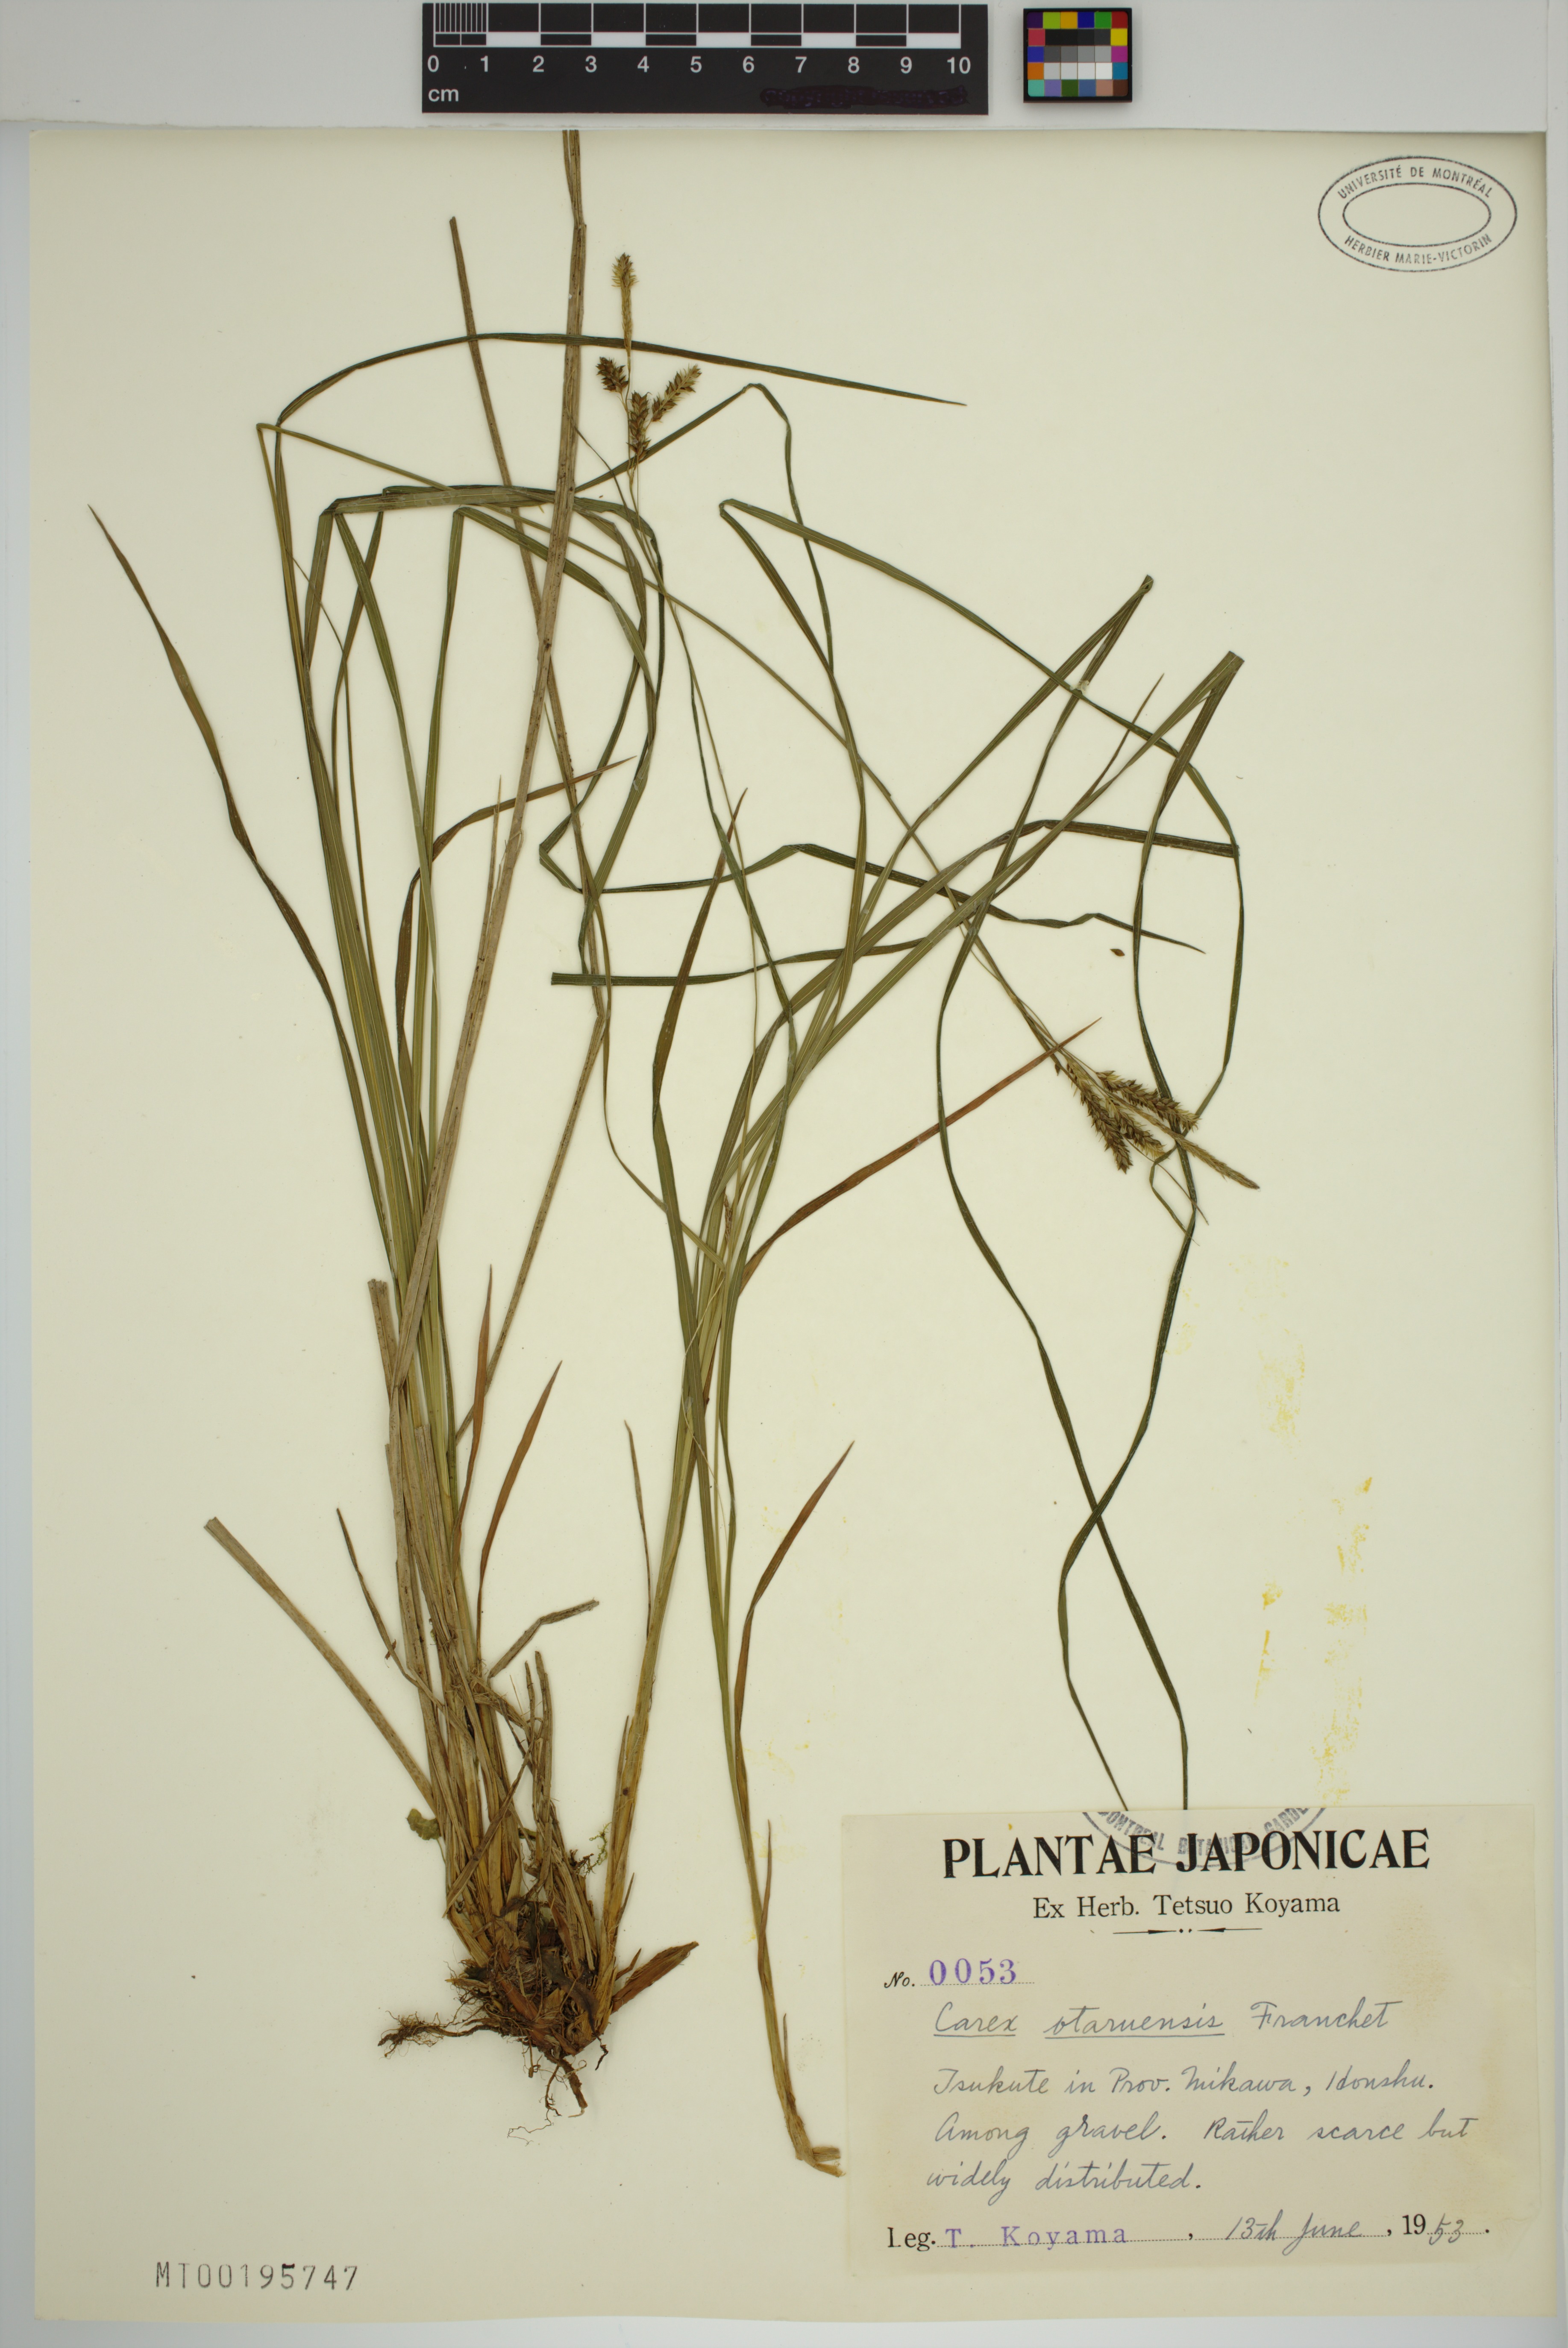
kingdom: Plantae
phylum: Tracheophyta
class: Liliopsida
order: Poales
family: Cyperaceae
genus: Carex
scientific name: Carex otaruensis
